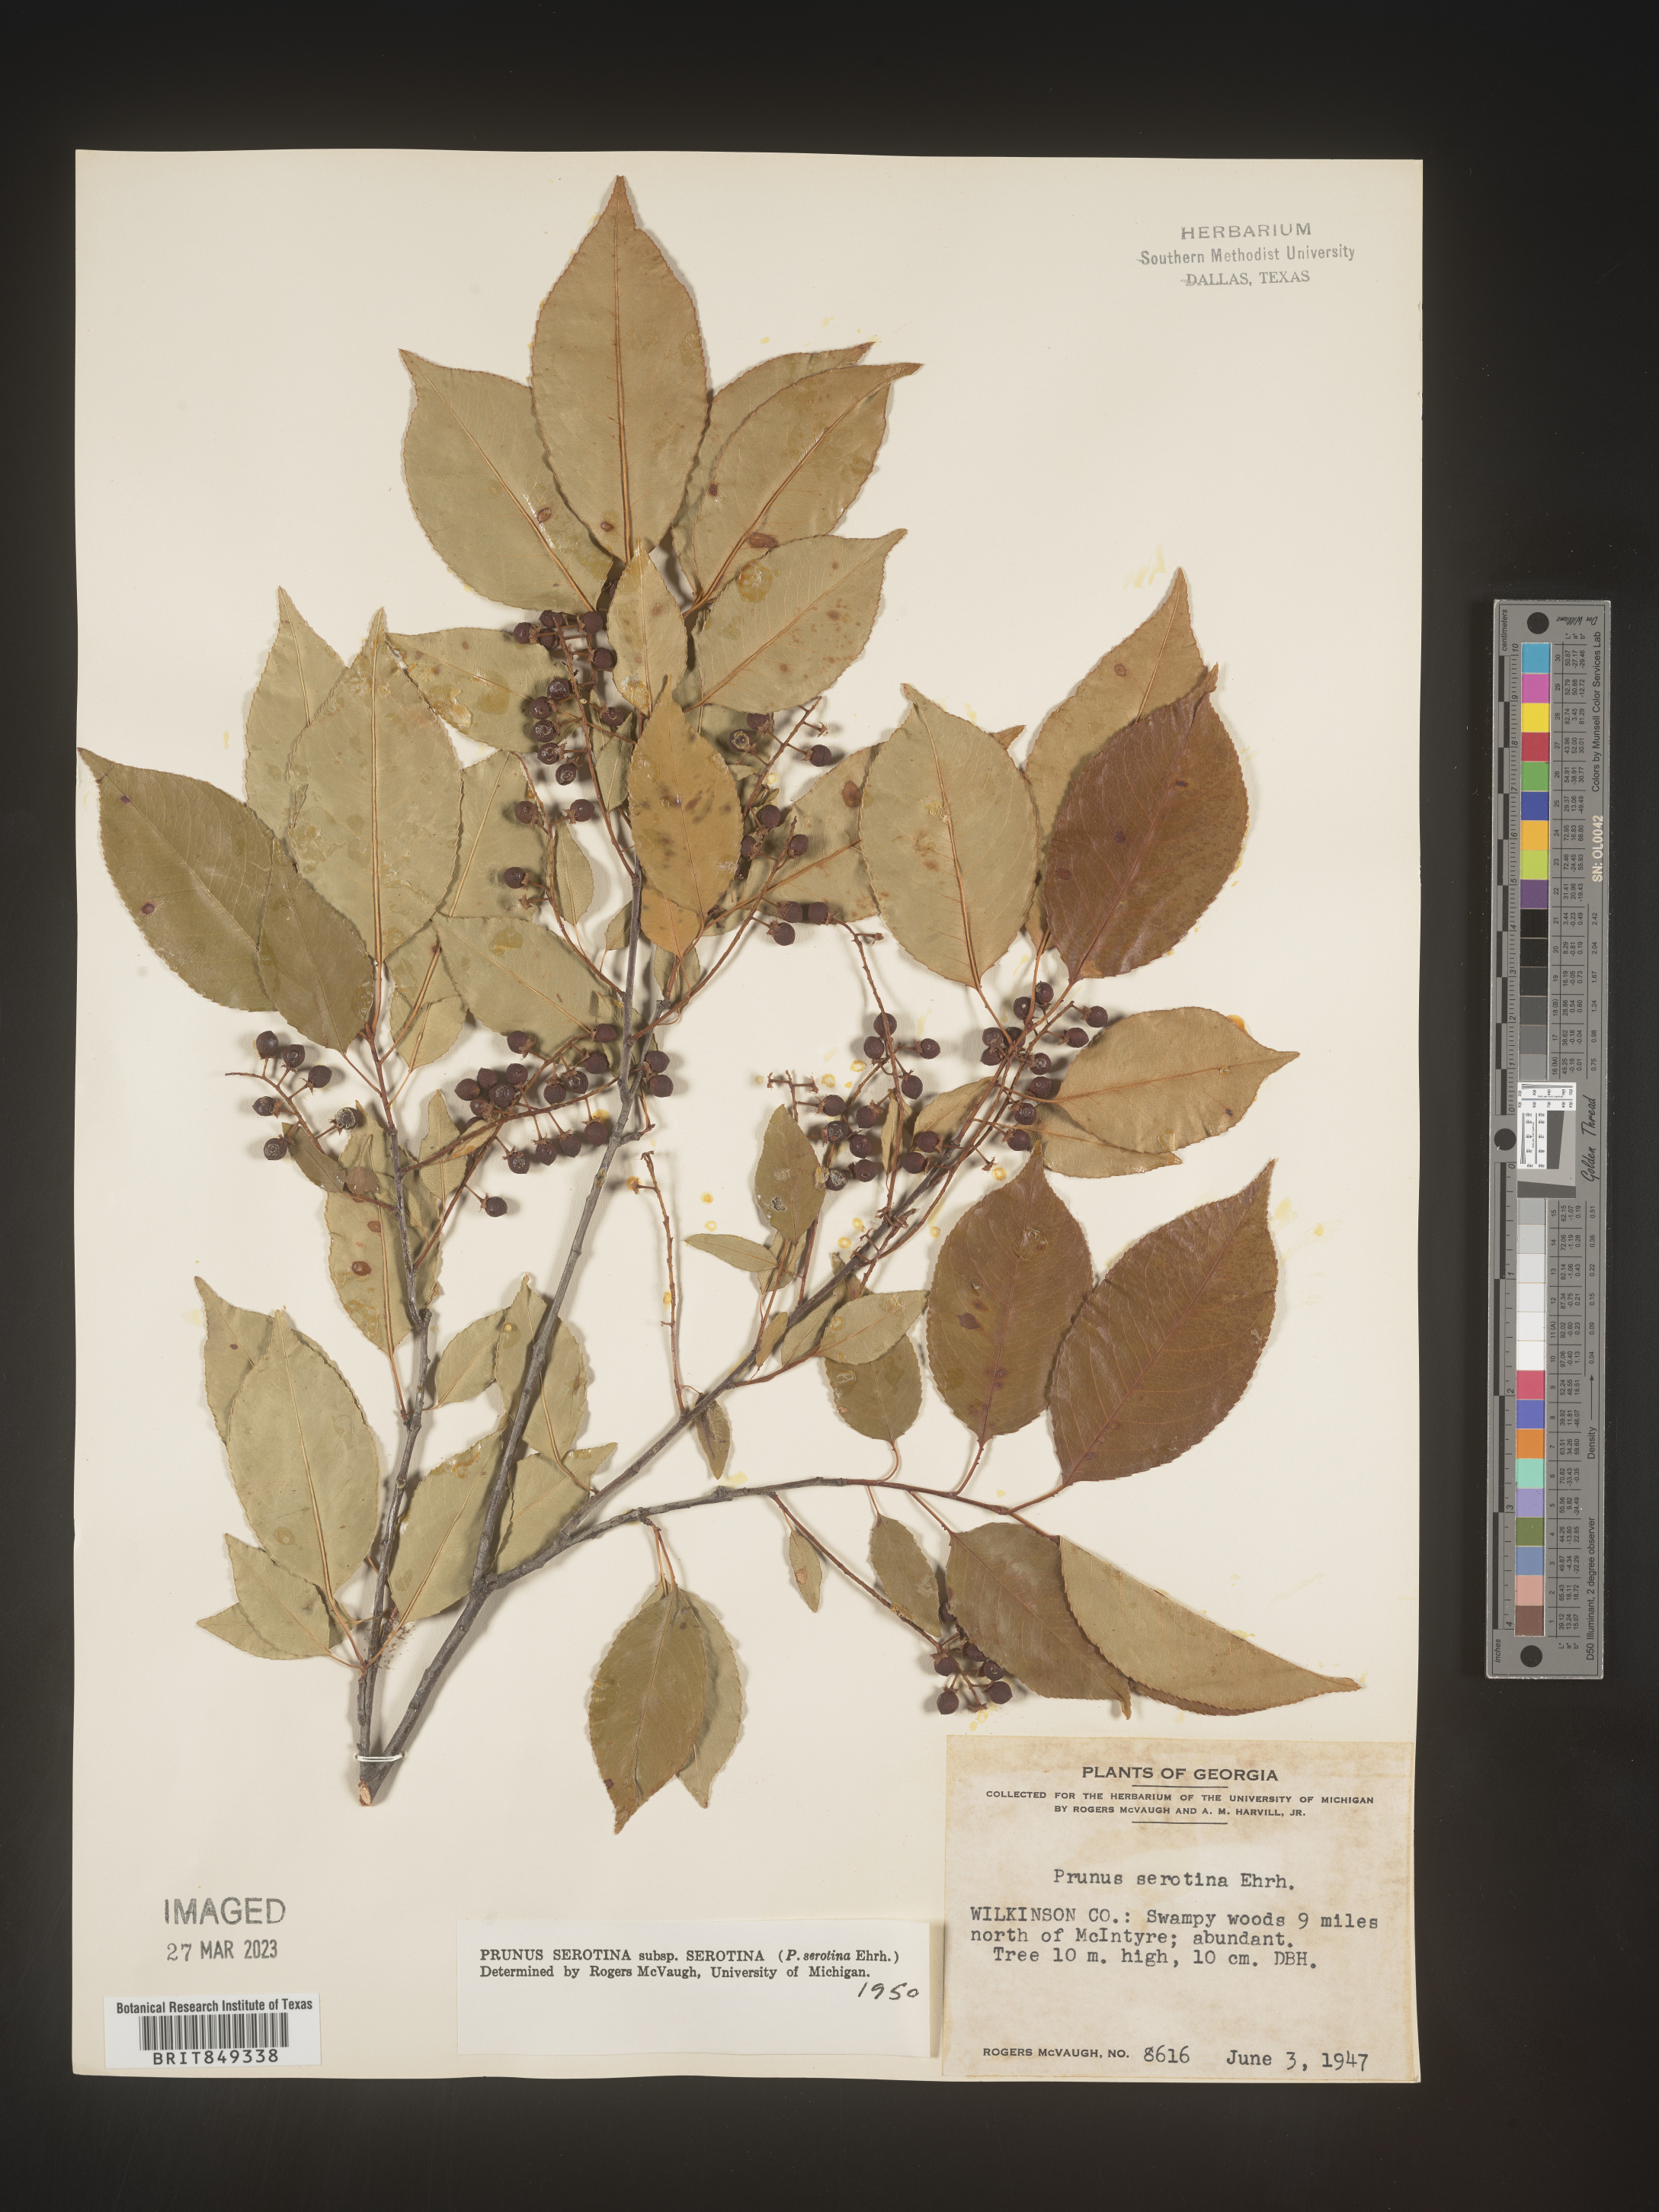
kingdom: Plantae
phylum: Tracheophyta
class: Magnoliopsida
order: Rosales
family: Rosaceae
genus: Prunus
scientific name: Prunus serotina
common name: Black cherry
